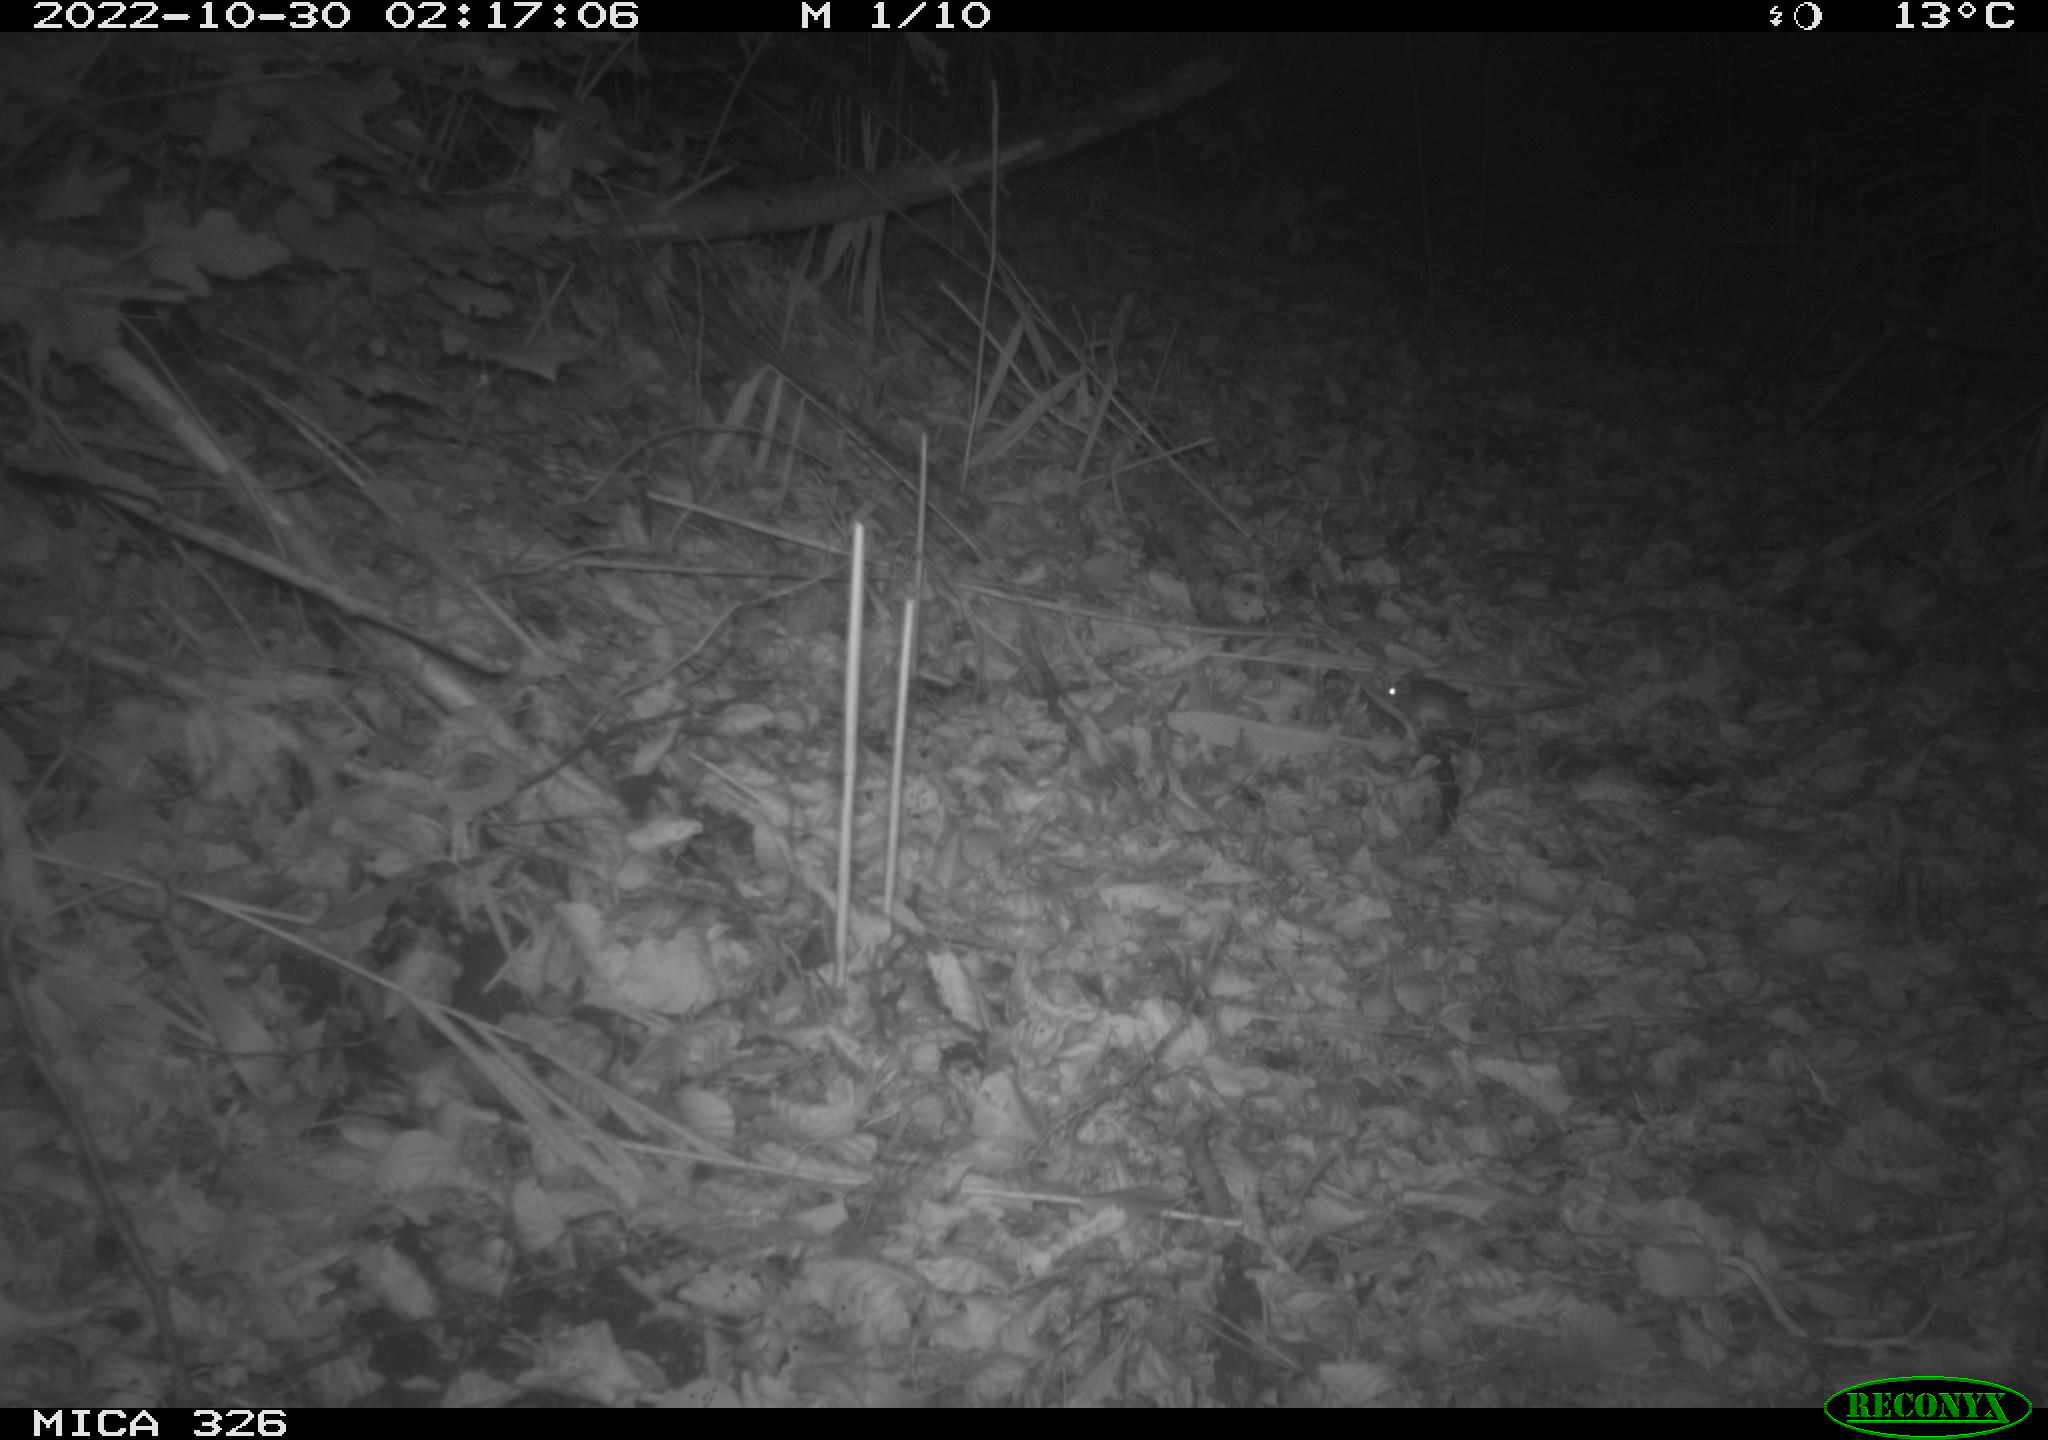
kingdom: Animalia
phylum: Chordata
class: Mammalia
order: Rodentia
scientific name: Rodentia
